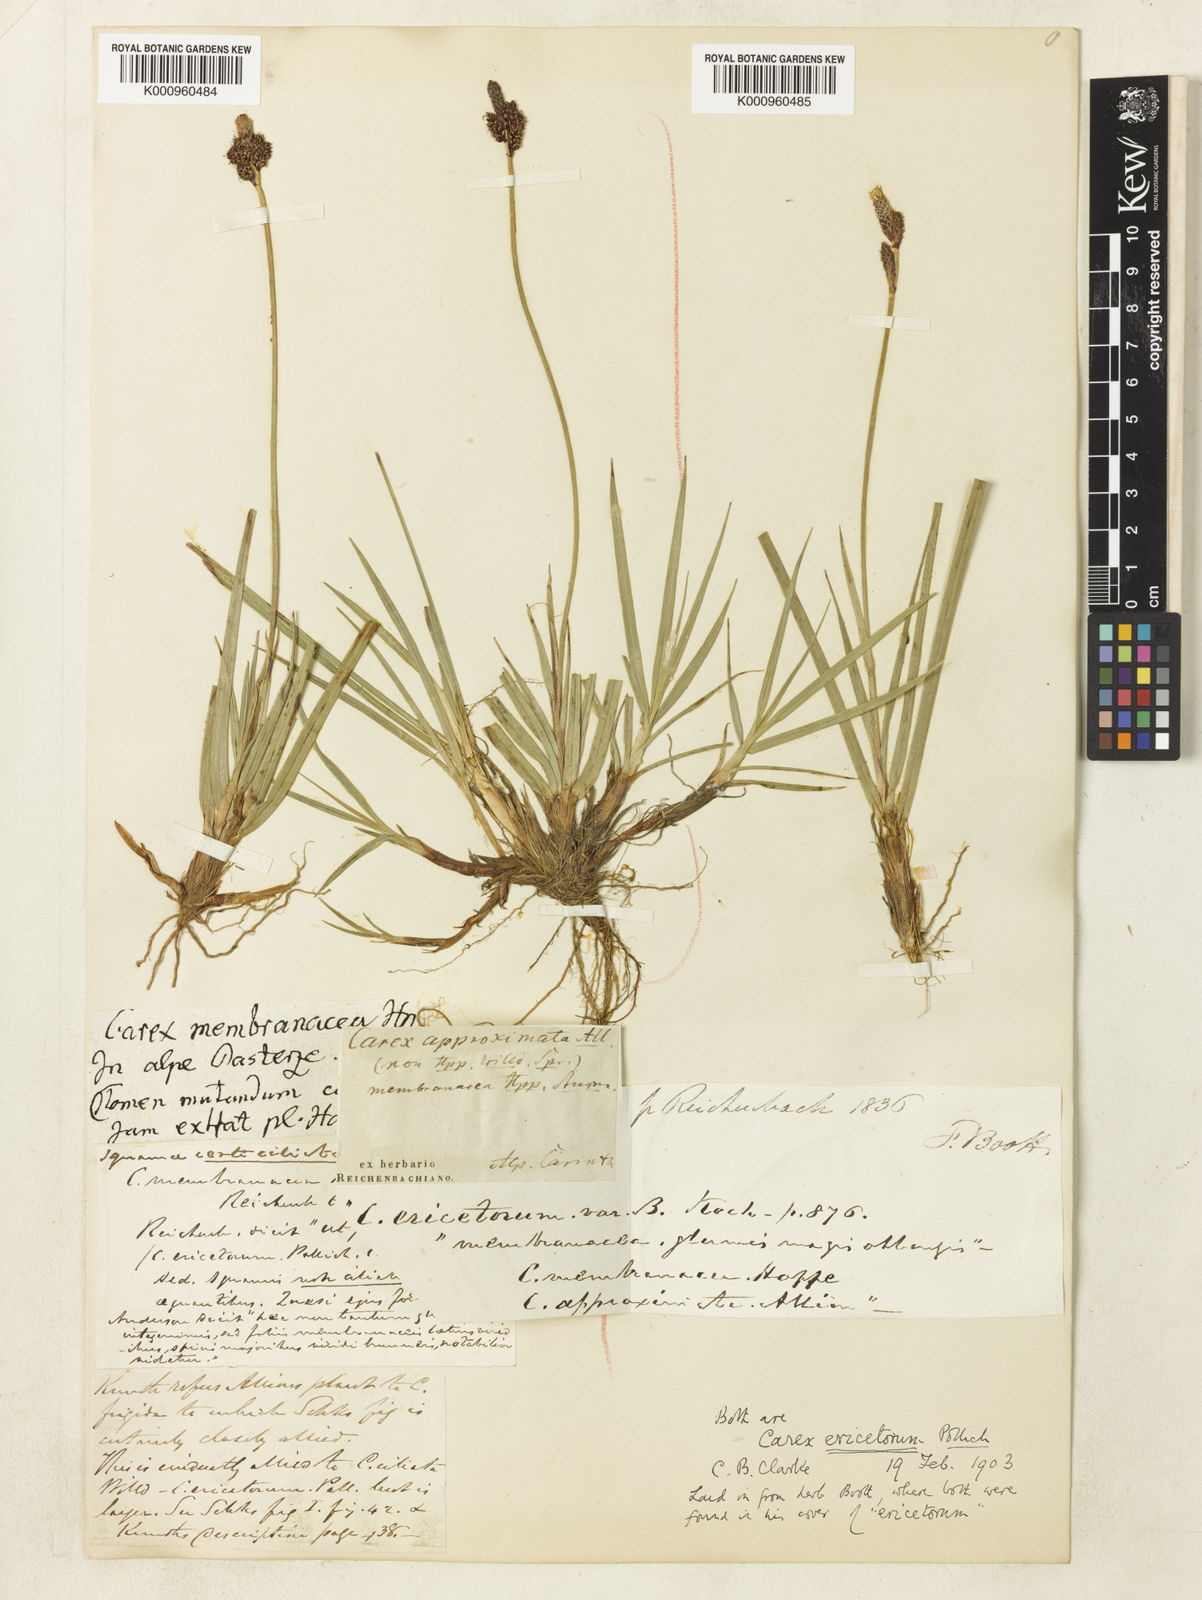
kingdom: Plantae
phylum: Tracheophyta
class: Liliopsida
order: Poales
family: Cyperaceae
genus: Carex
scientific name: Carex ericetorum
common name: Rare spring-sedge
